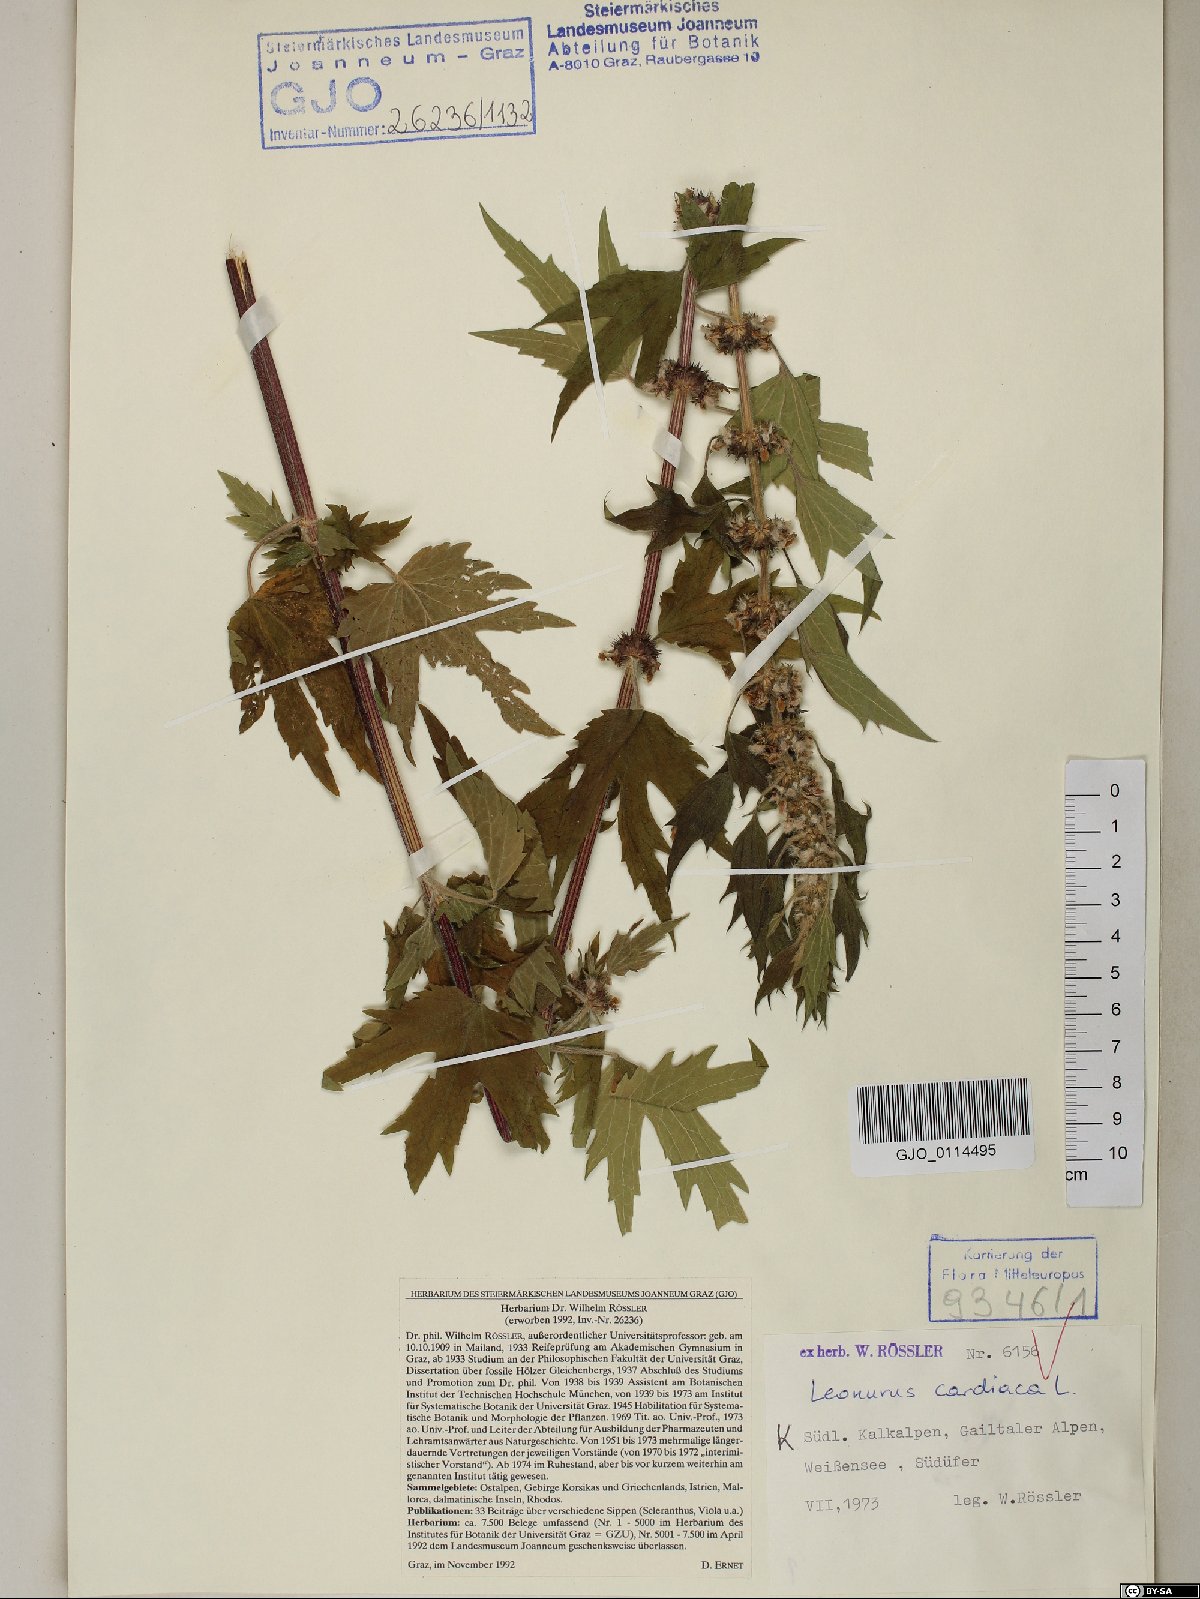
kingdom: Plantae
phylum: Tracheophyta
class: Magnoliopsida
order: Lamiales
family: Lamiaceae
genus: Leonurus
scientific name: Leonurus cardiaca
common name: Motherwort
